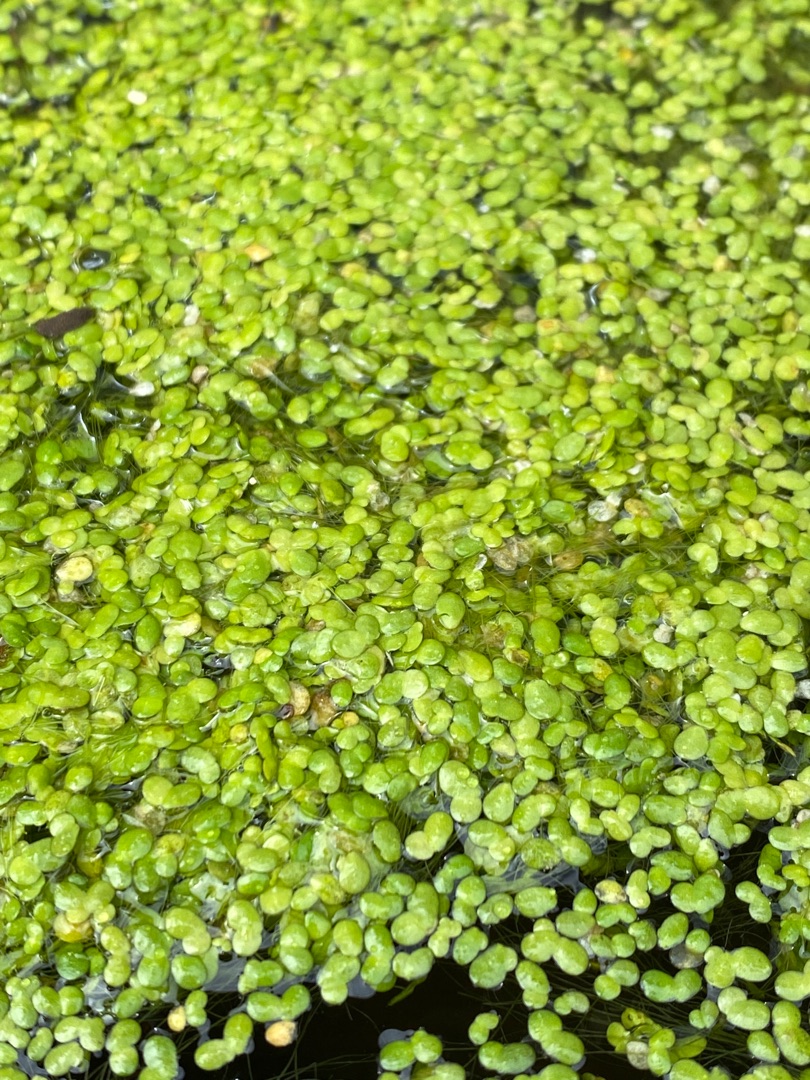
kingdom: Plantae
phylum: Tracheophyta
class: Liliopsida
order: Alismatales
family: Araceae
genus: Lemna
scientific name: Lemna minor
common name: Liden andemad
